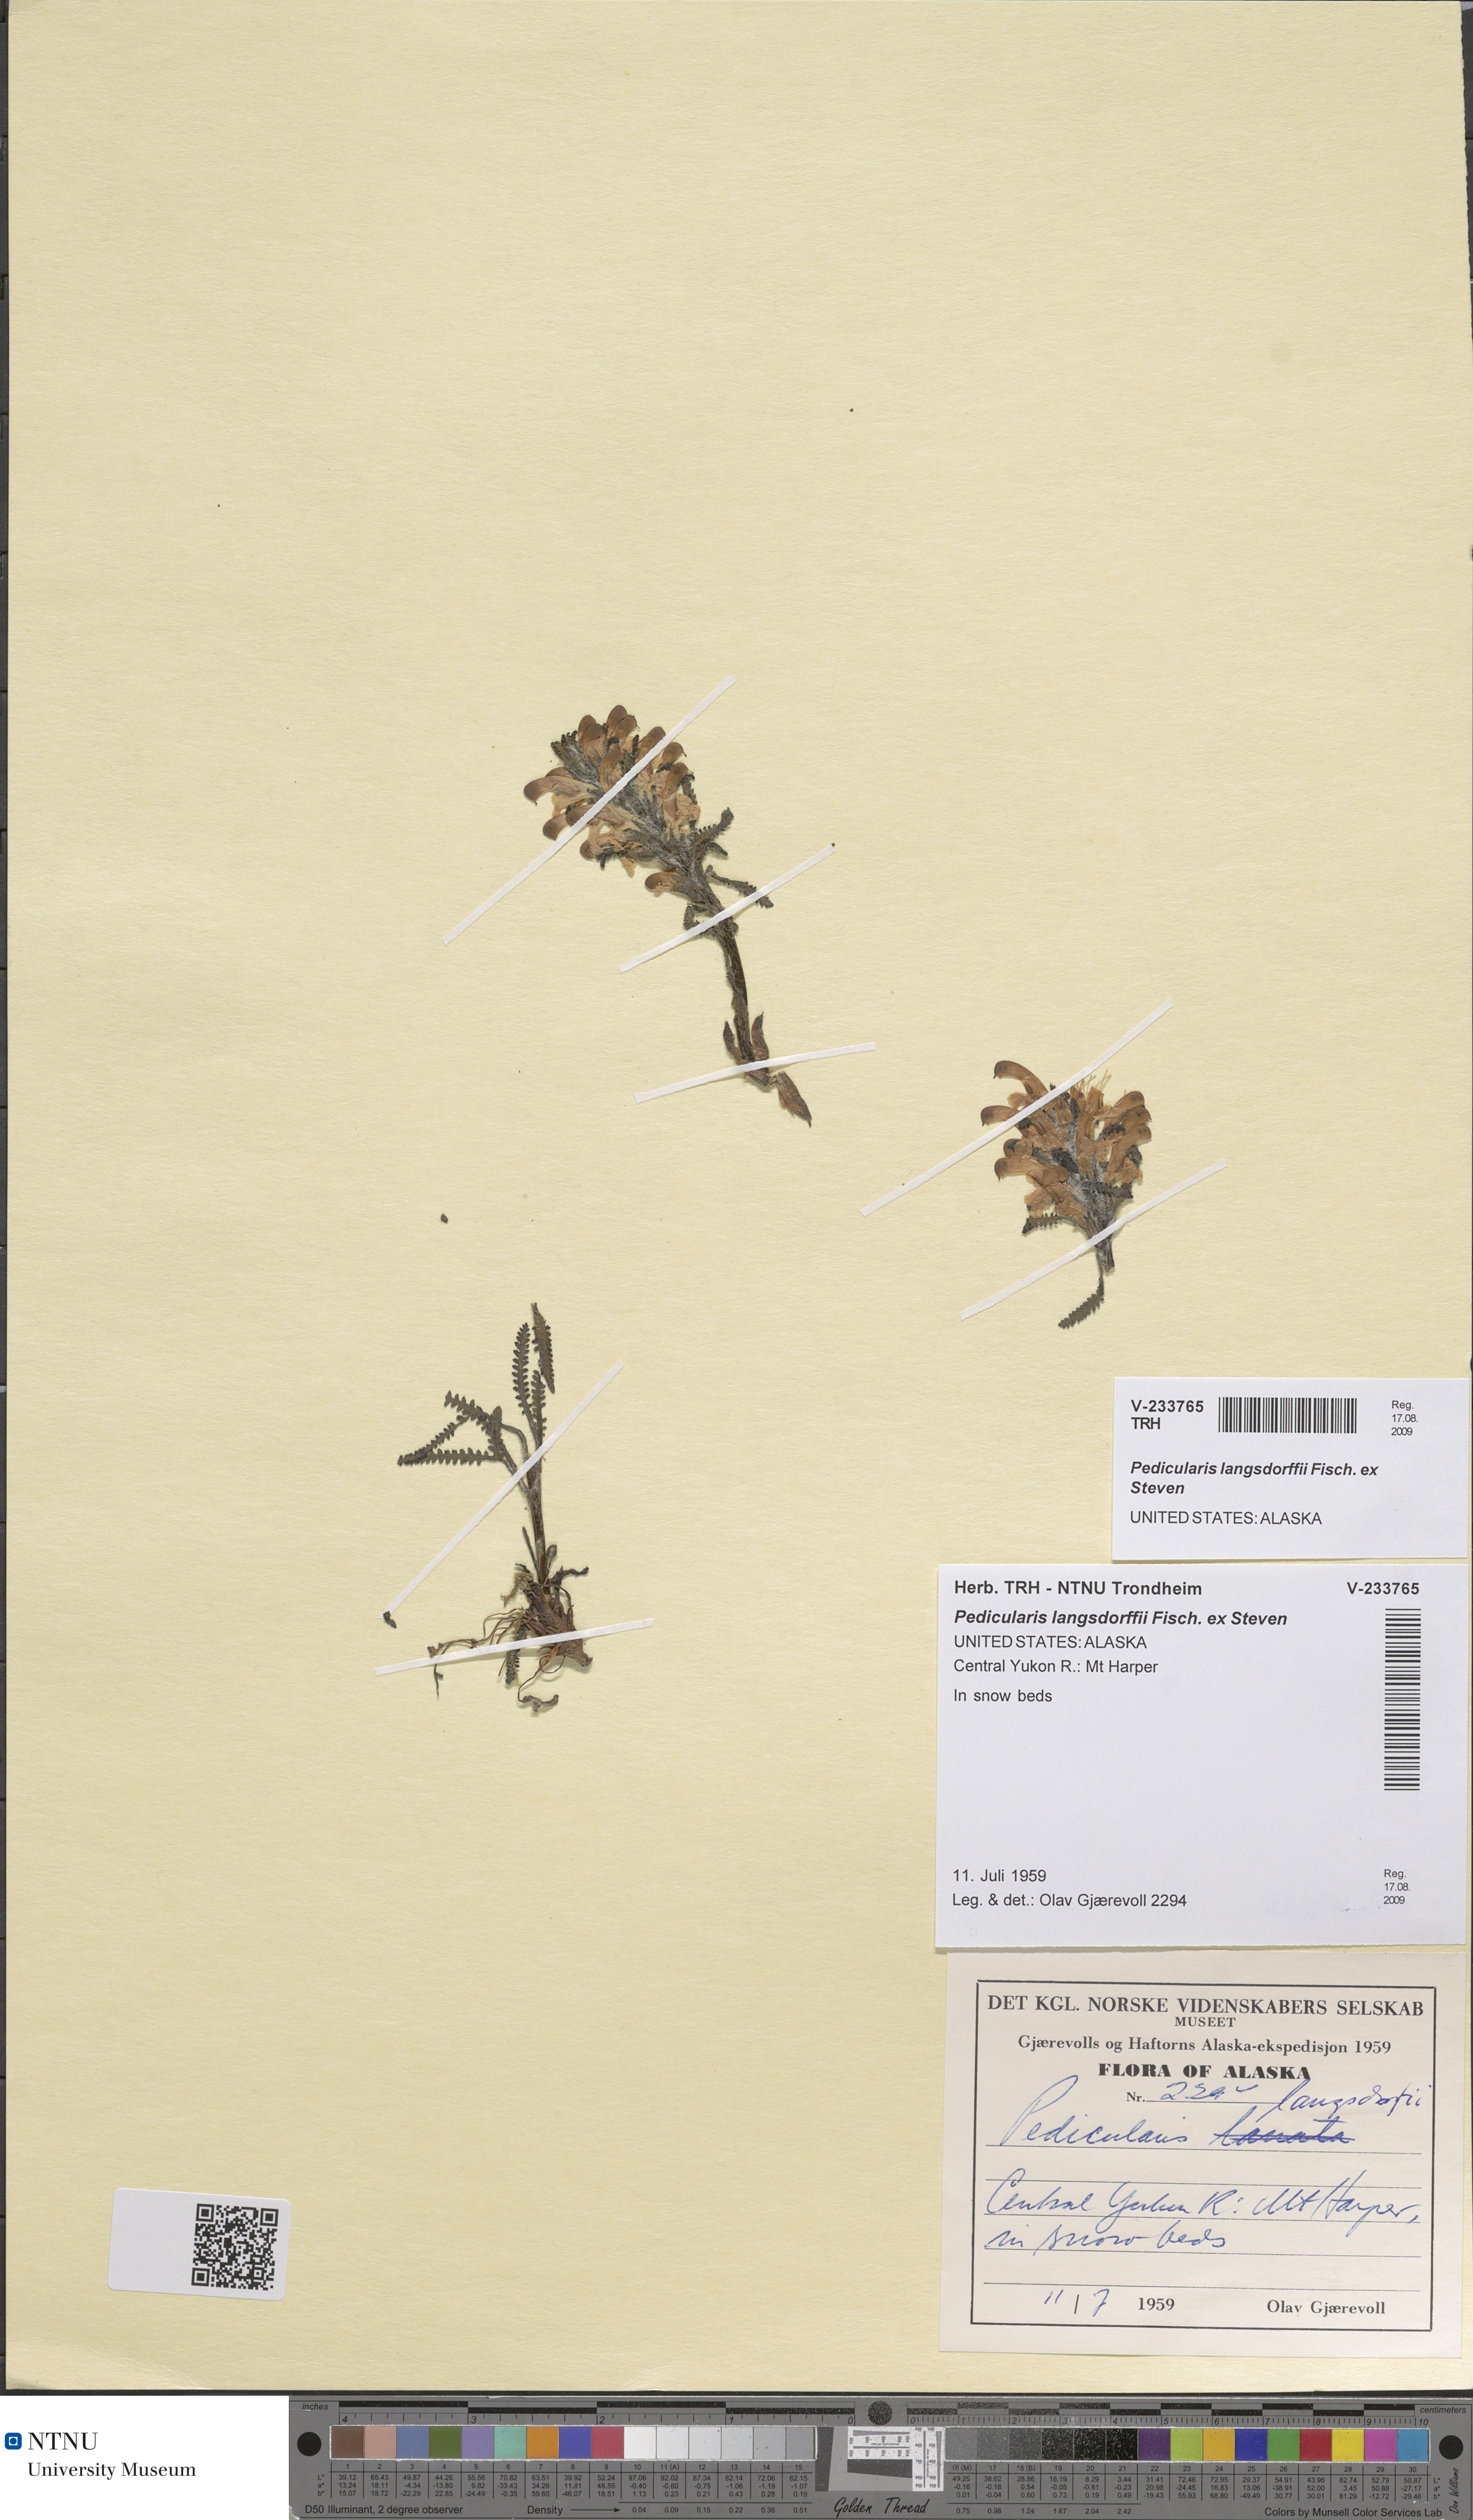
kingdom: Plantae
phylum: Tracheophyta
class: Magnoliopsida
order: Lamiales
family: Orobanchaceae
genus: Pedicularis
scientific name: Pedicularis langsdorffii
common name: Langsdorff's lousewort
